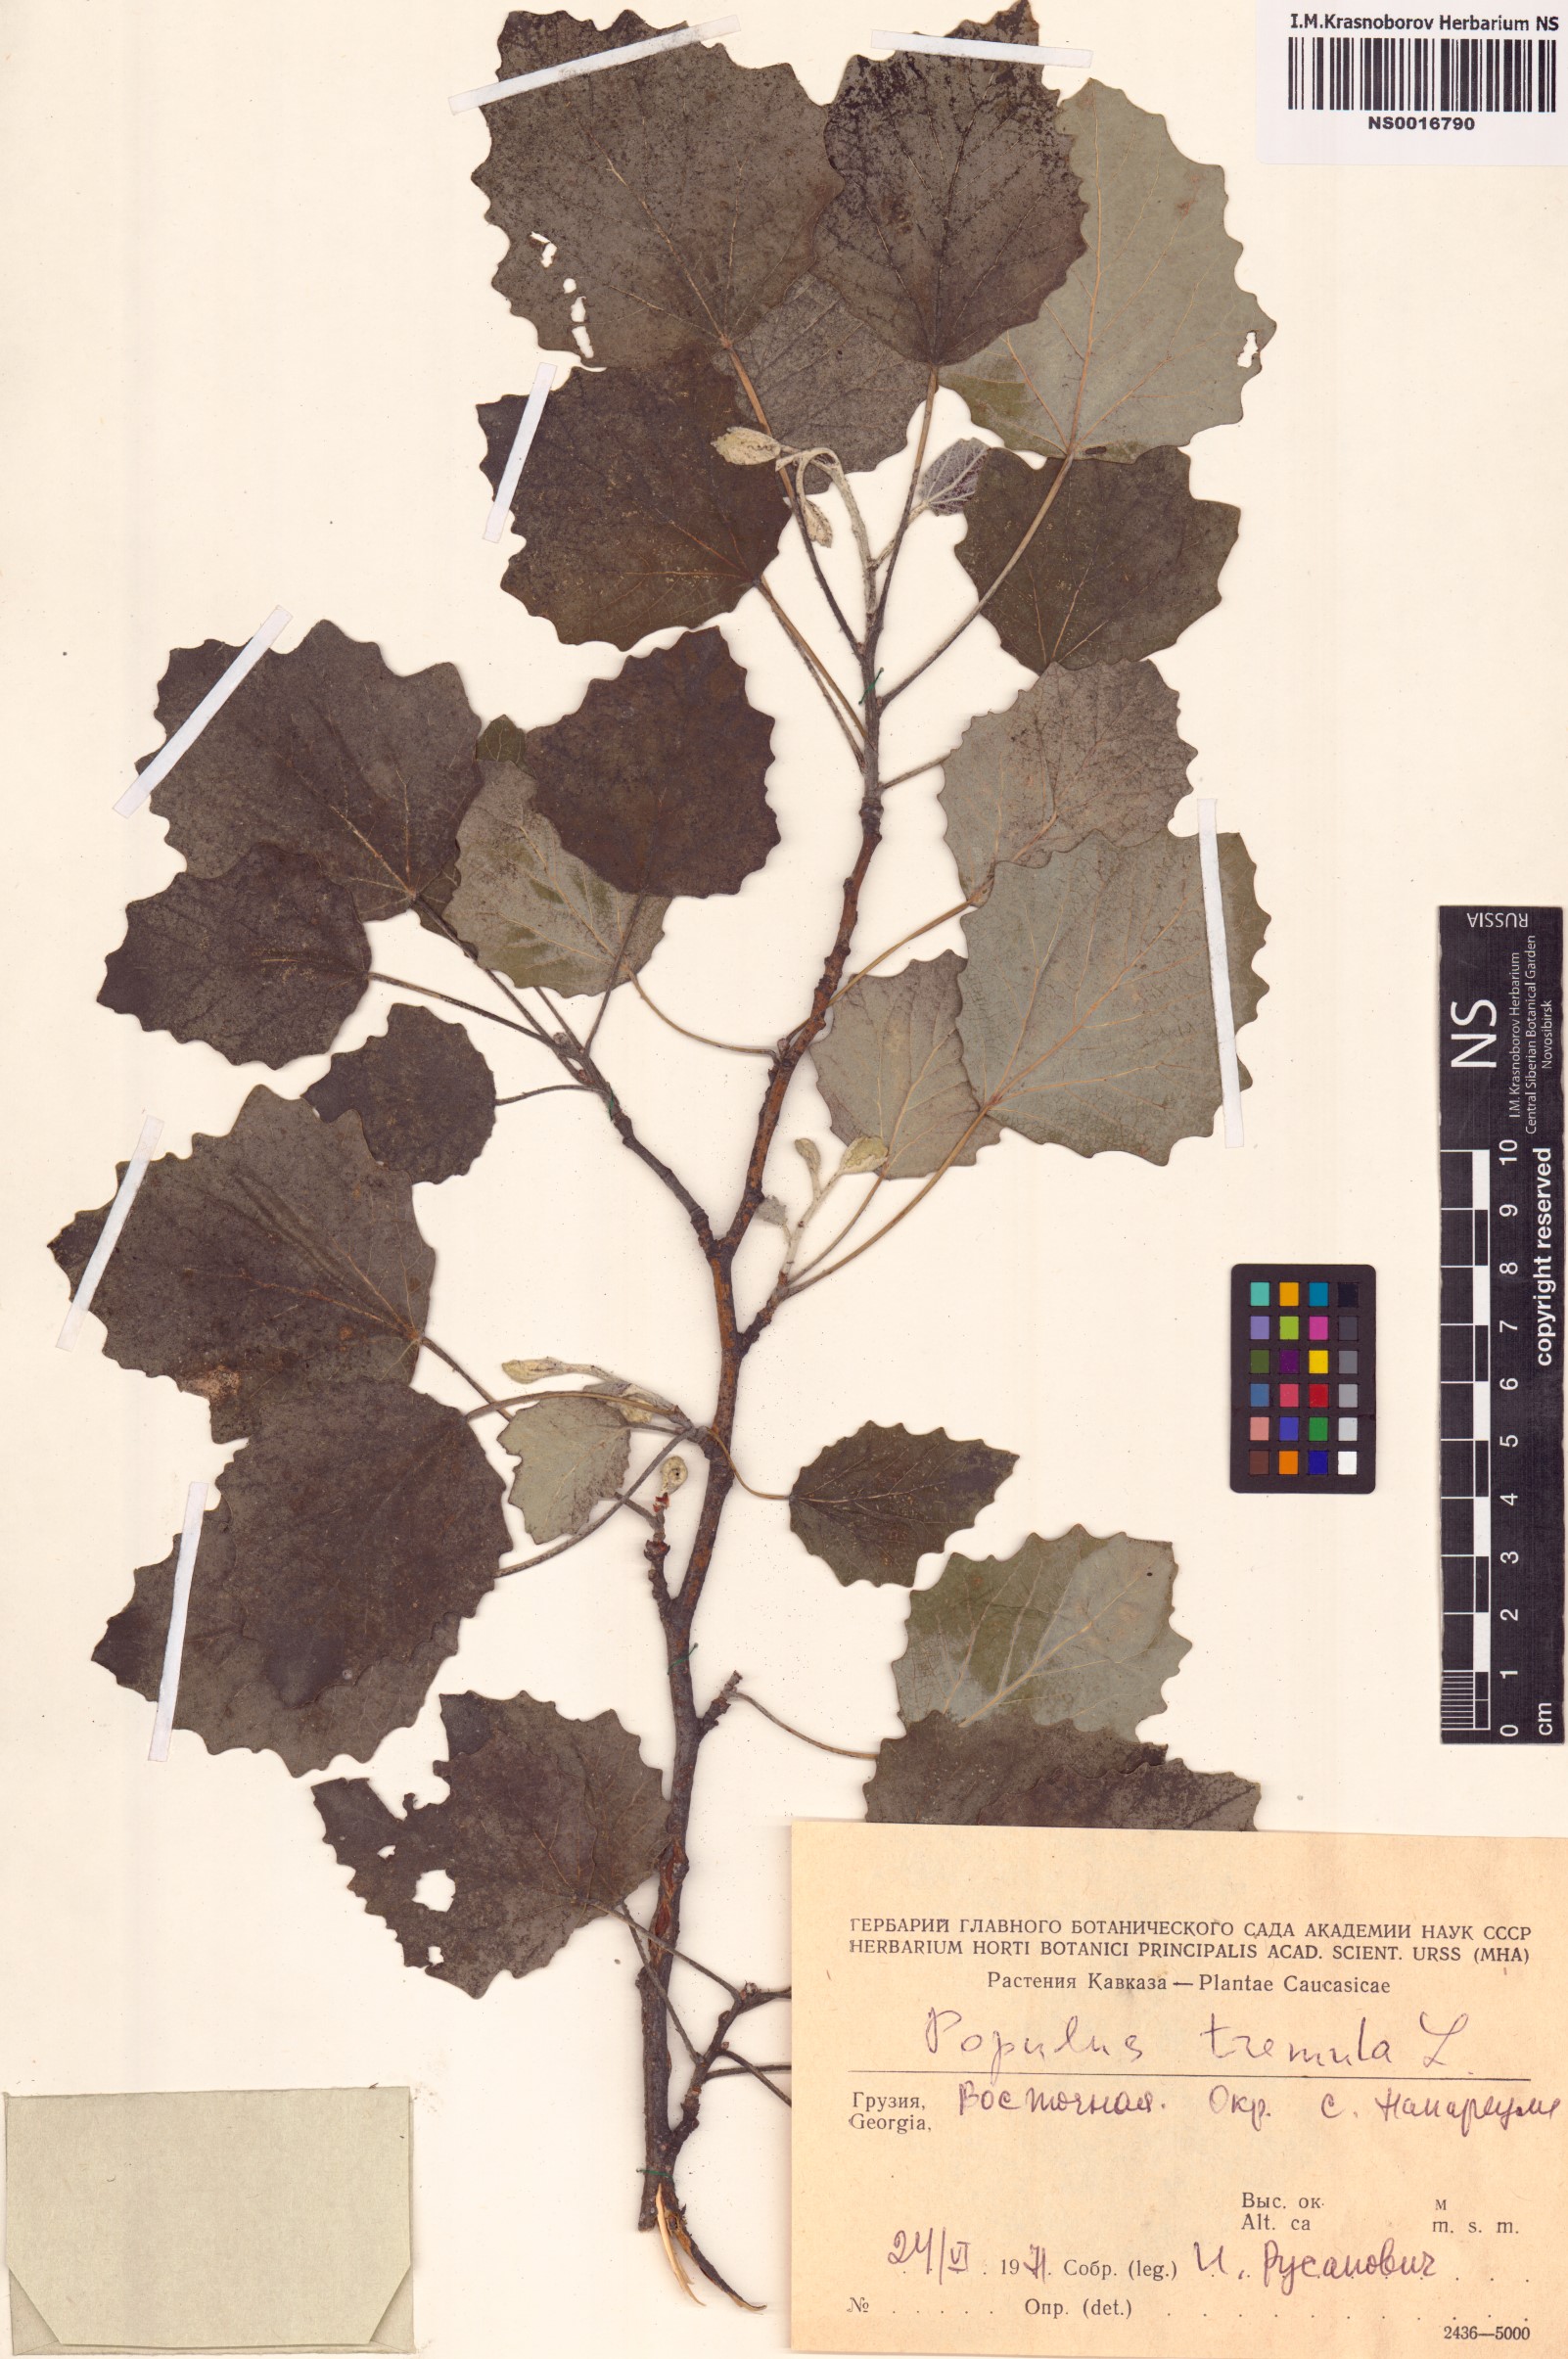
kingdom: Plantae
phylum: Tracheophyta
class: Magnoliopsida
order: Malpighiales
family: Salicaceae
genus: Populus
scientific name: Populus tremula
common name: European aspen
